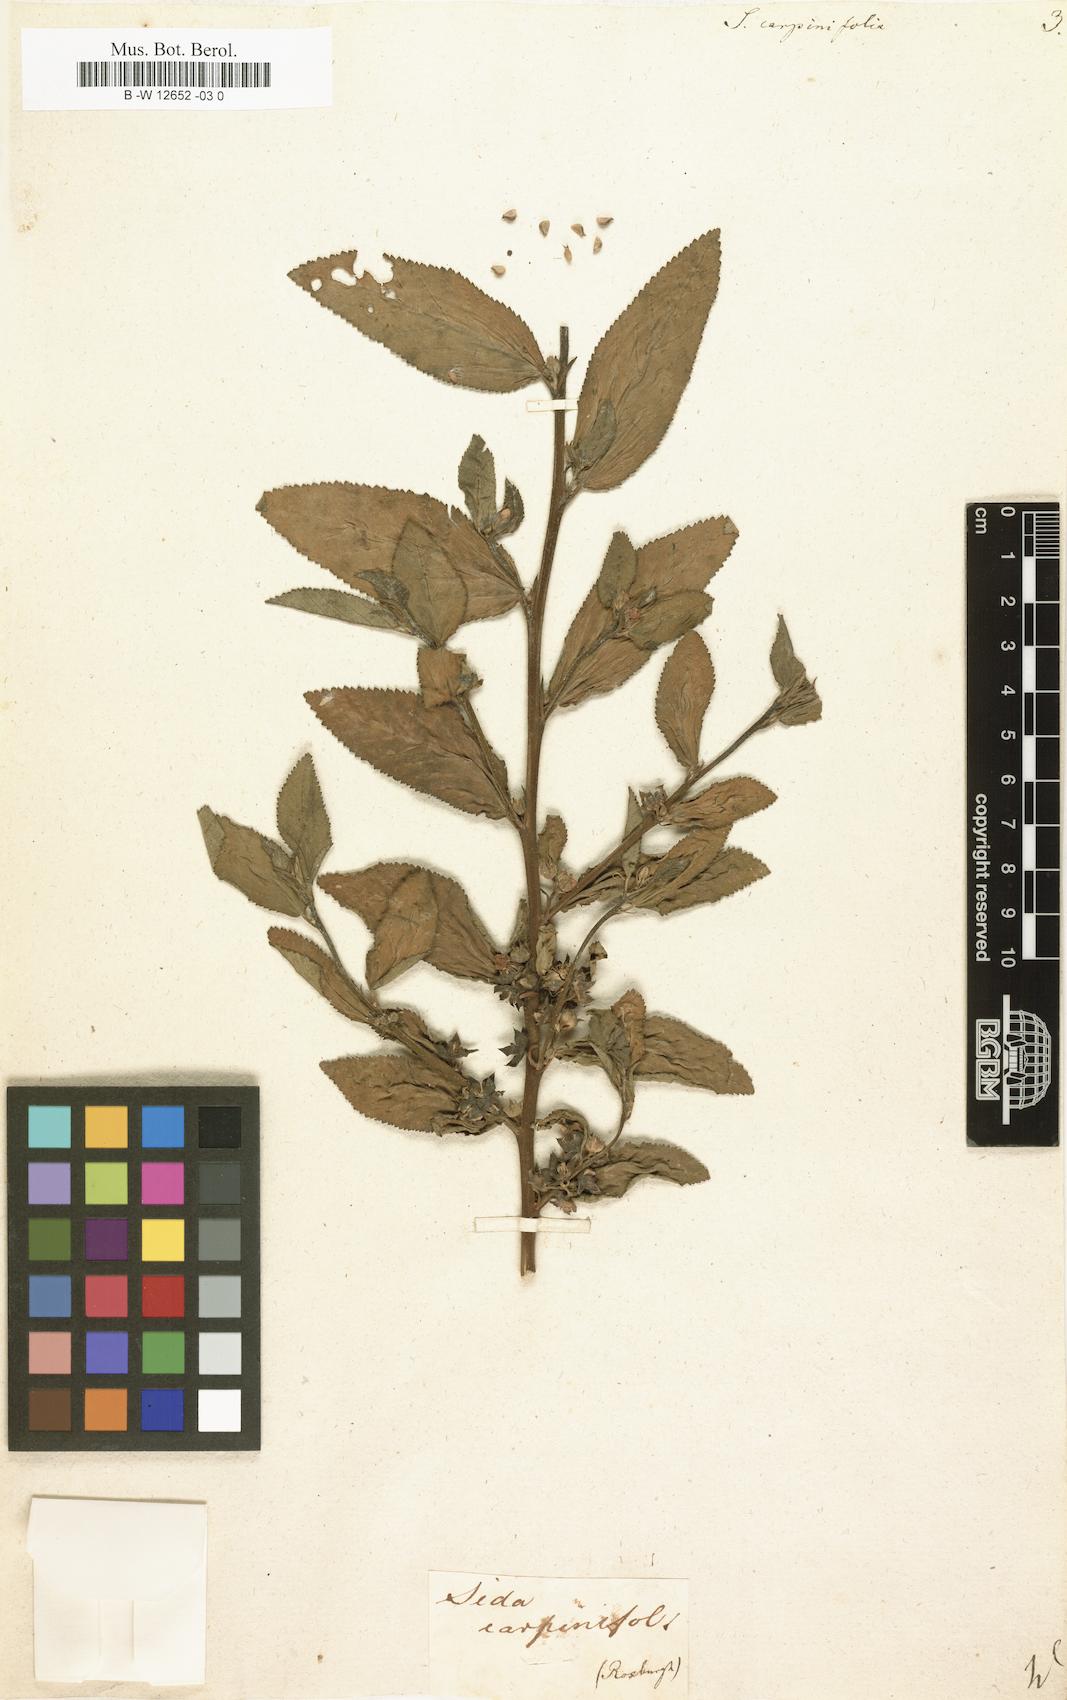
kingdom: Plantae
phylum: Tracheophyta
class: Magnoliopsida
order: Malvales
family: Malvaceae
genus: Sida
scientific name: Sida
